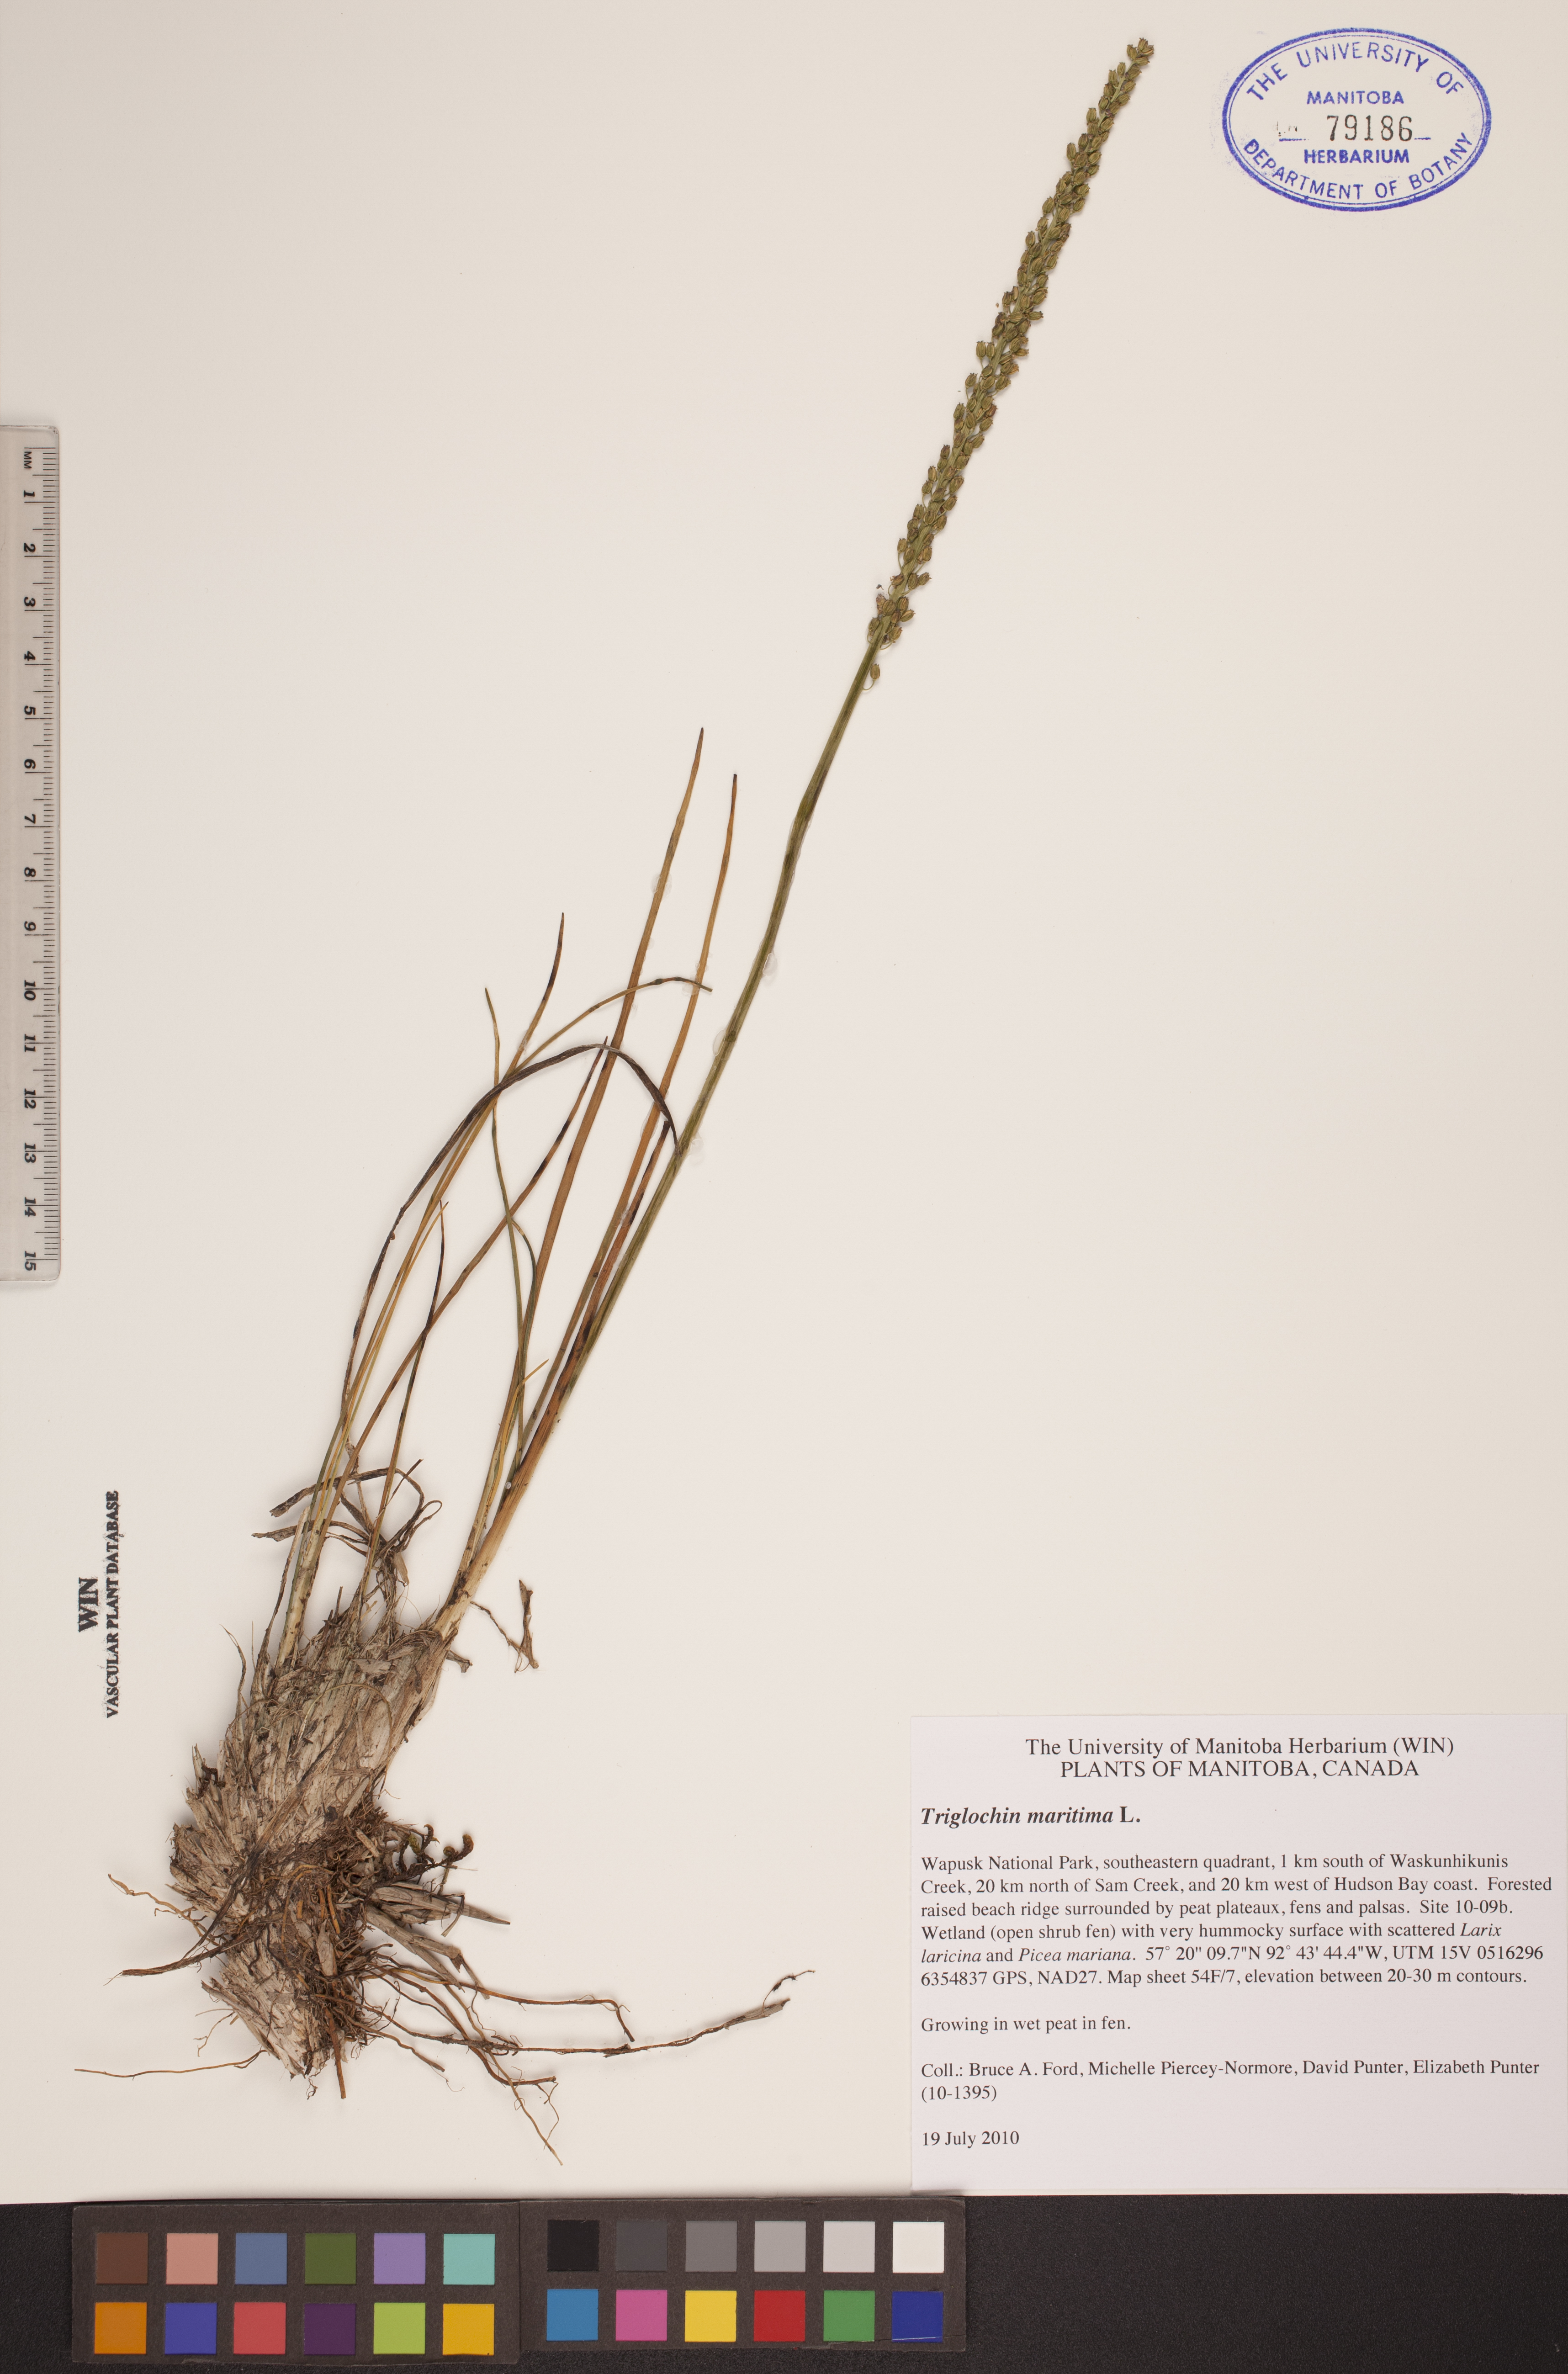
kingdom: Plantae
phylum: Tracheophyta
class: Liliopsida
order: Alismatales
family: Juncaginaceae
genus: Triglochin
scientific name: Triglochin maritima
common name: Sea arrowgrass
